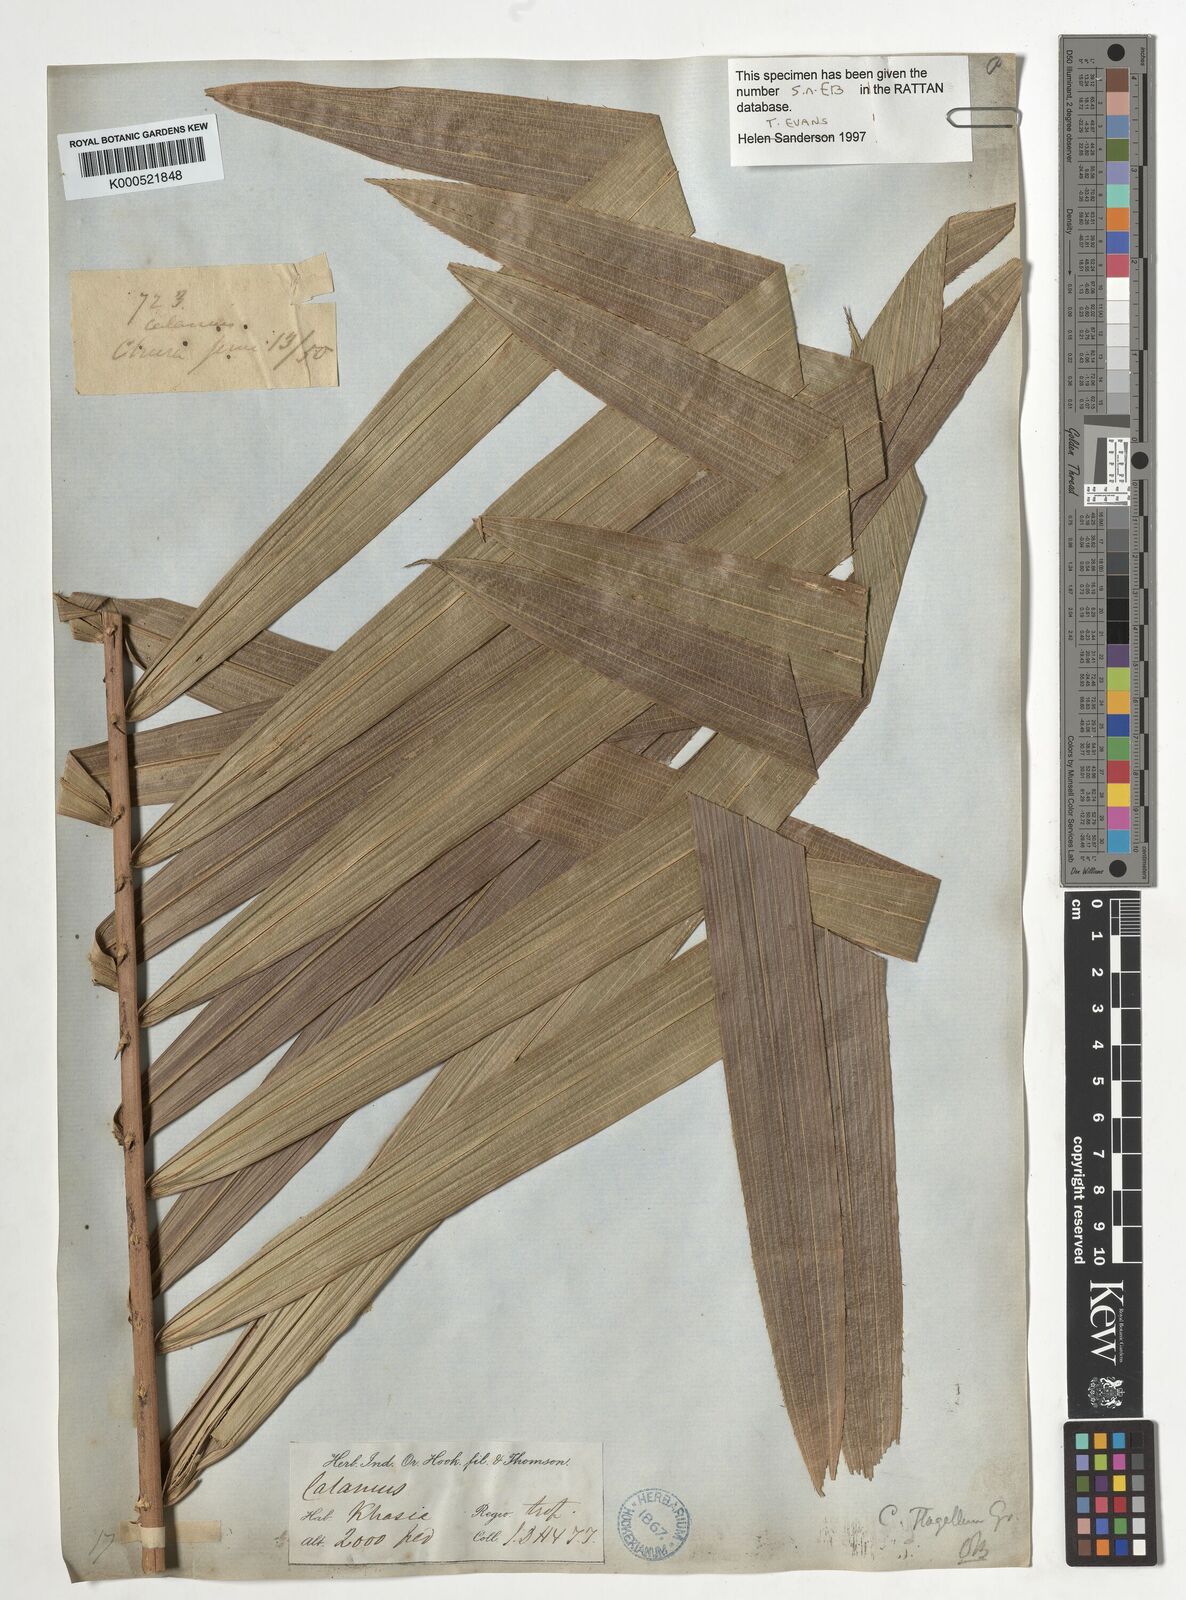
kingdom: Plantae
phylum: Tracheophyta
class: Liliopsida
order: Arecales
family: Arecaceae
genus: Calamus
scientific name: Calamus
